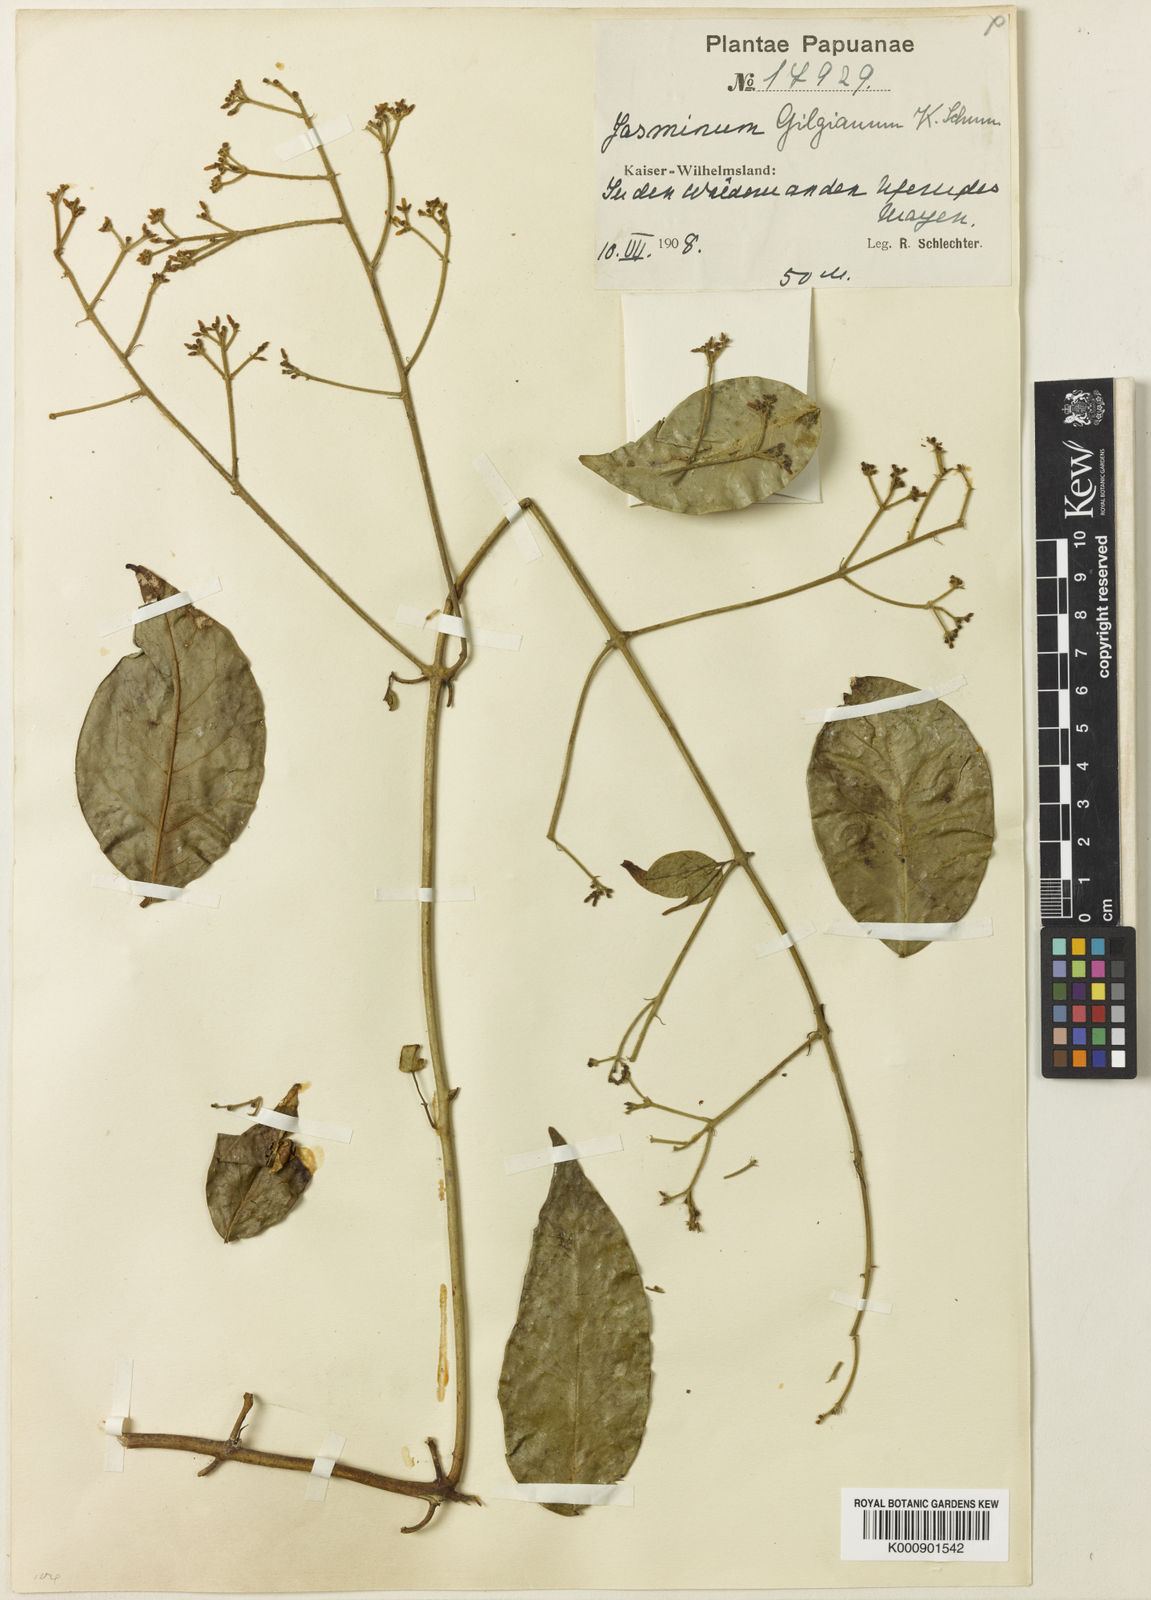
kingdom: Plantae
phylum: Tracheophyta
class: Magnoliopsida
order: Lamiales
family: Oleaceae
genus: Jasminum
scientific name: Jasminum gilgianum
